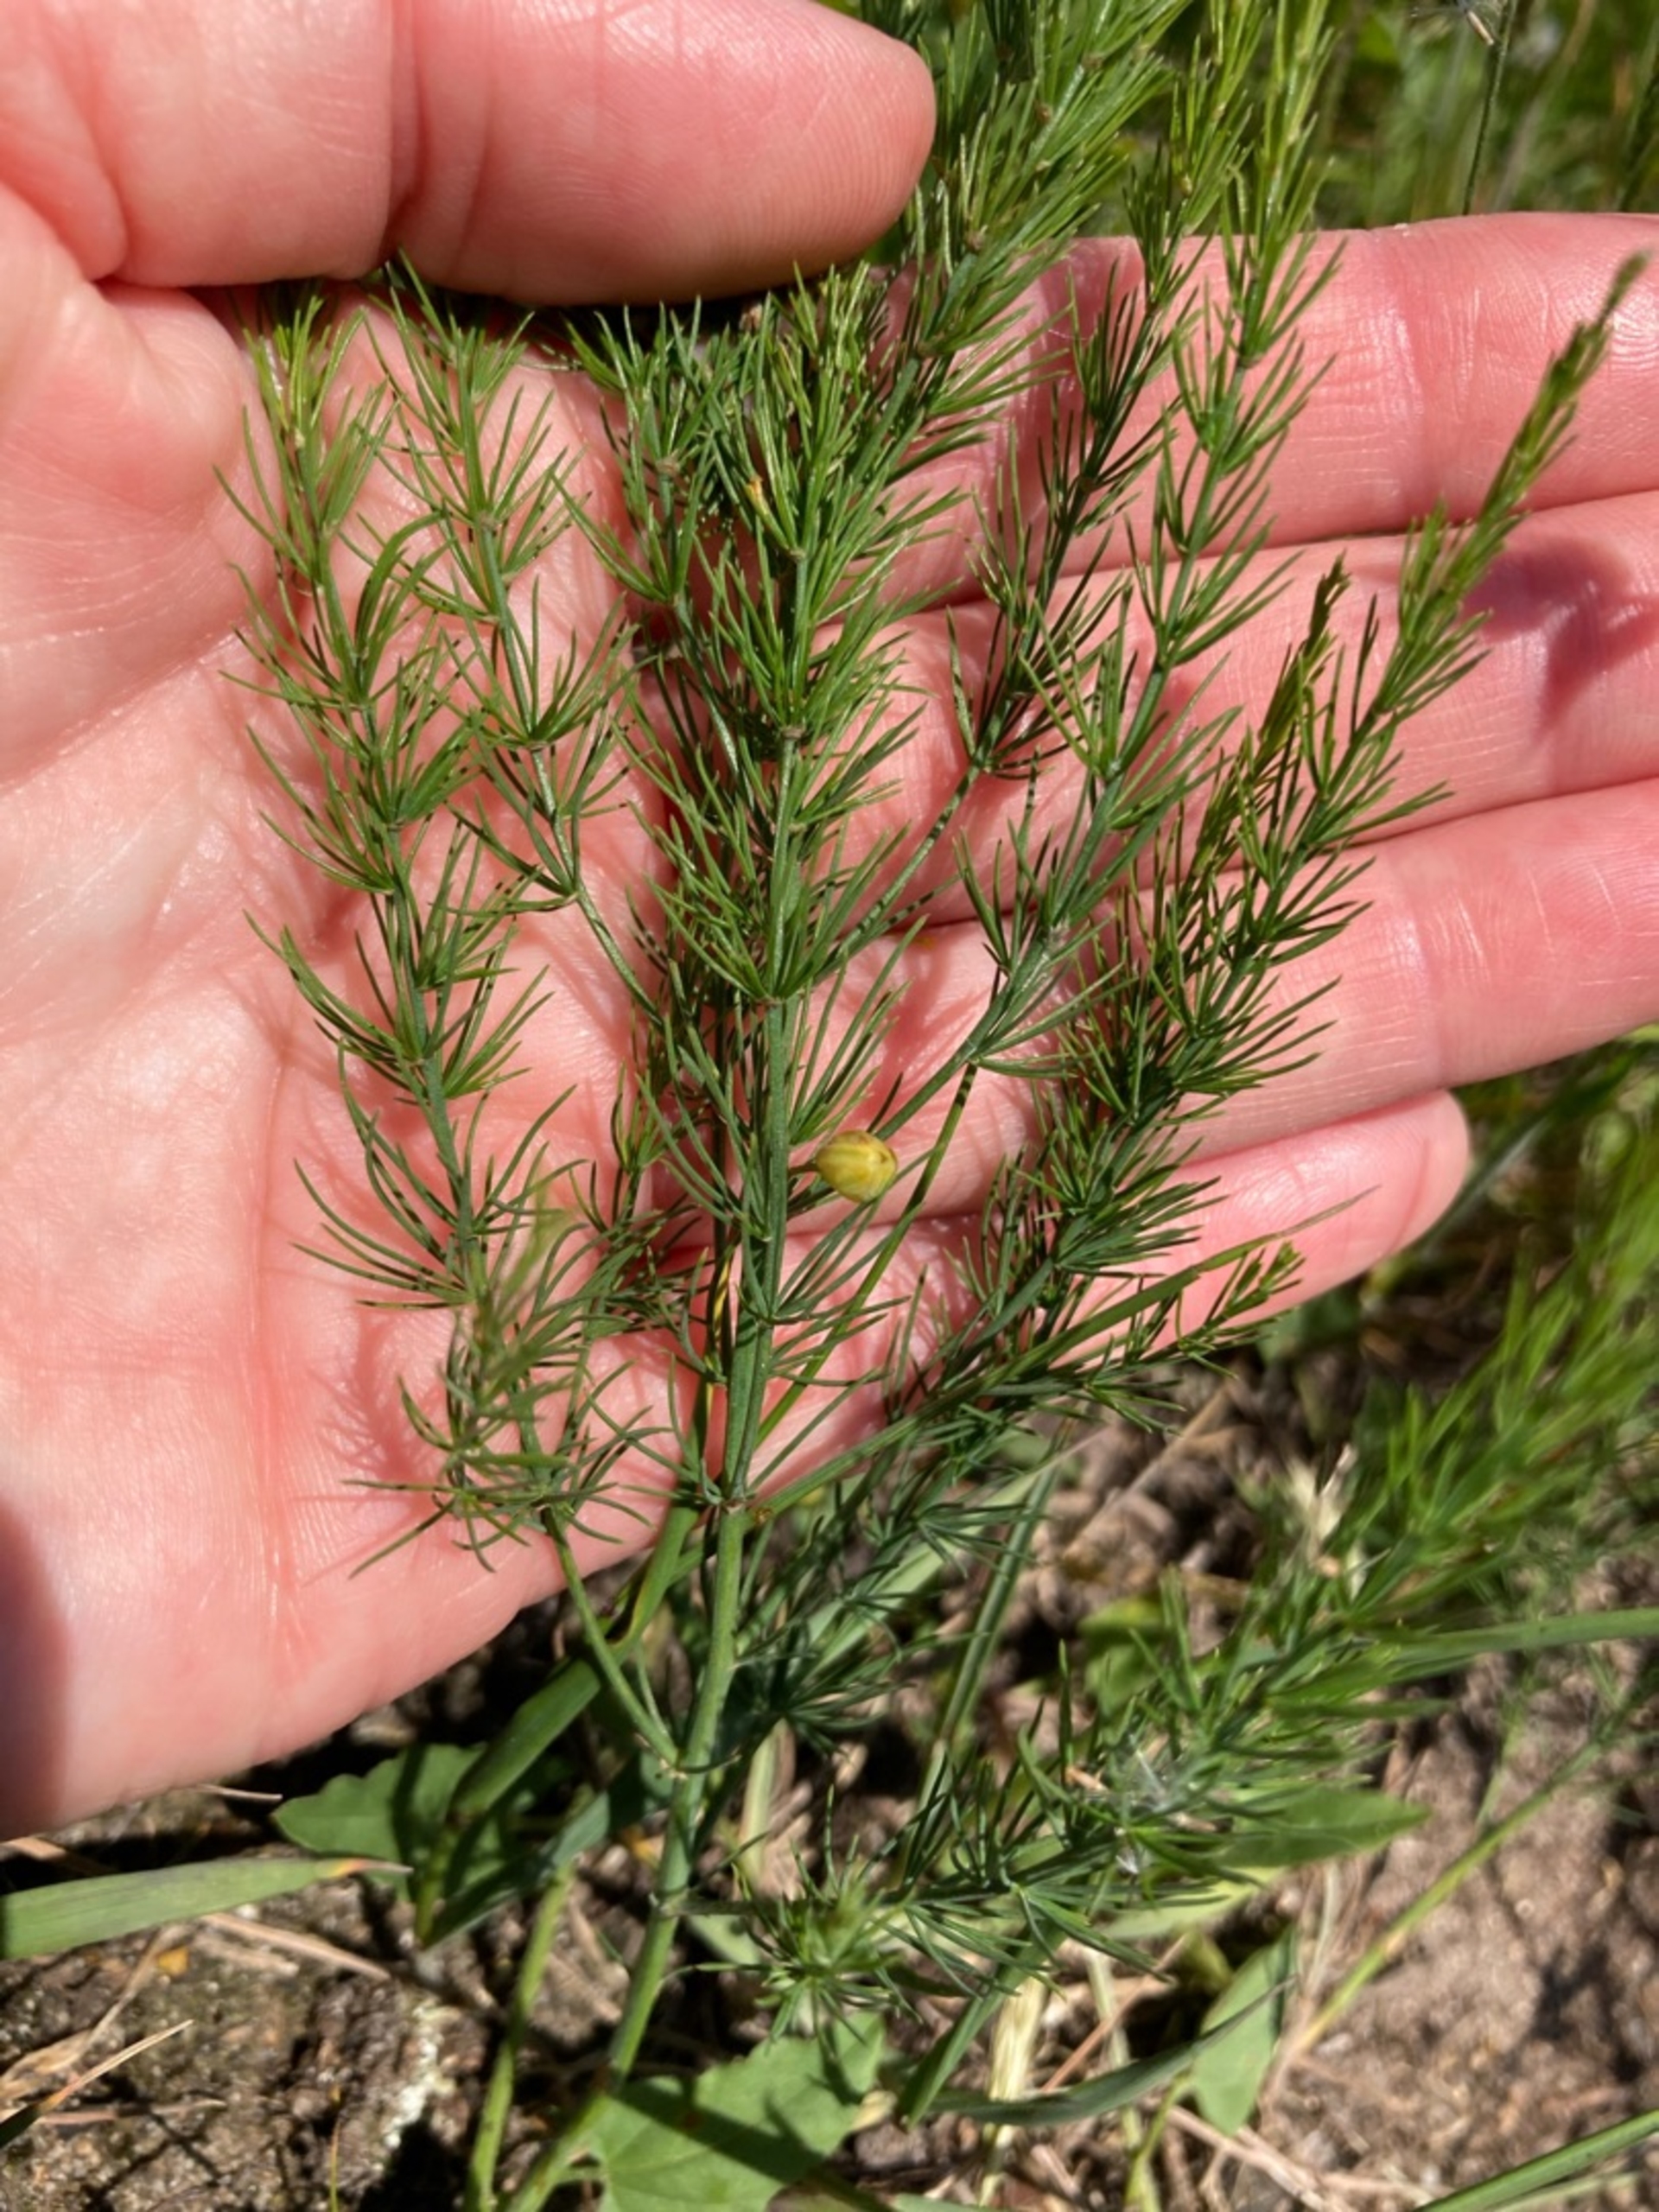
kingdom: Plantae
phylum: Tracheophyta
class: Liliopsida
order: Asparagales
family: Asparagaceae
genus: Asparagus
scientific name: Asparagus officinalis
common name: Asparges
